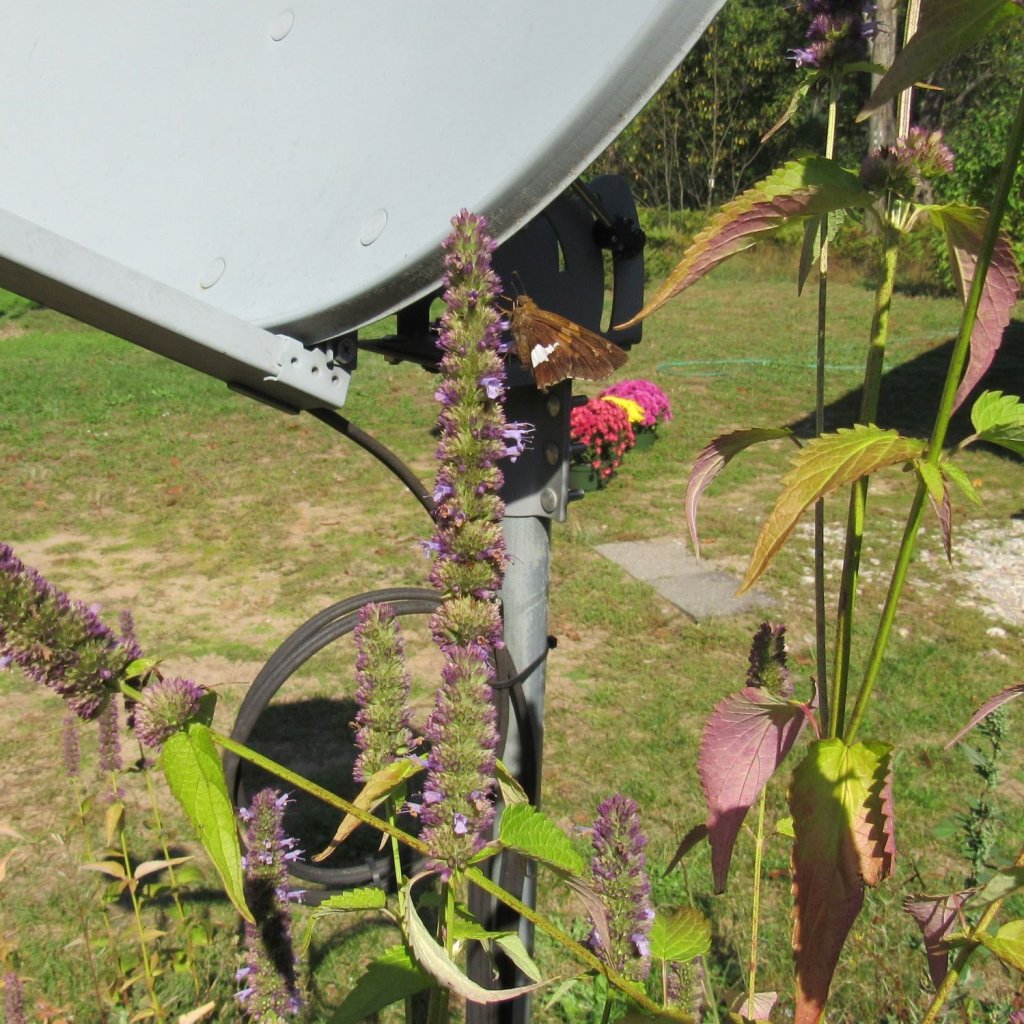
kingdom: Animalia
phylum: Arthropoda
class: Insecta
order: Lepidoptera
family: Hesperiidae
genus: Epargyreus
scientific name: Epargyreus clarus
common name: Silver-spotted Skipper
